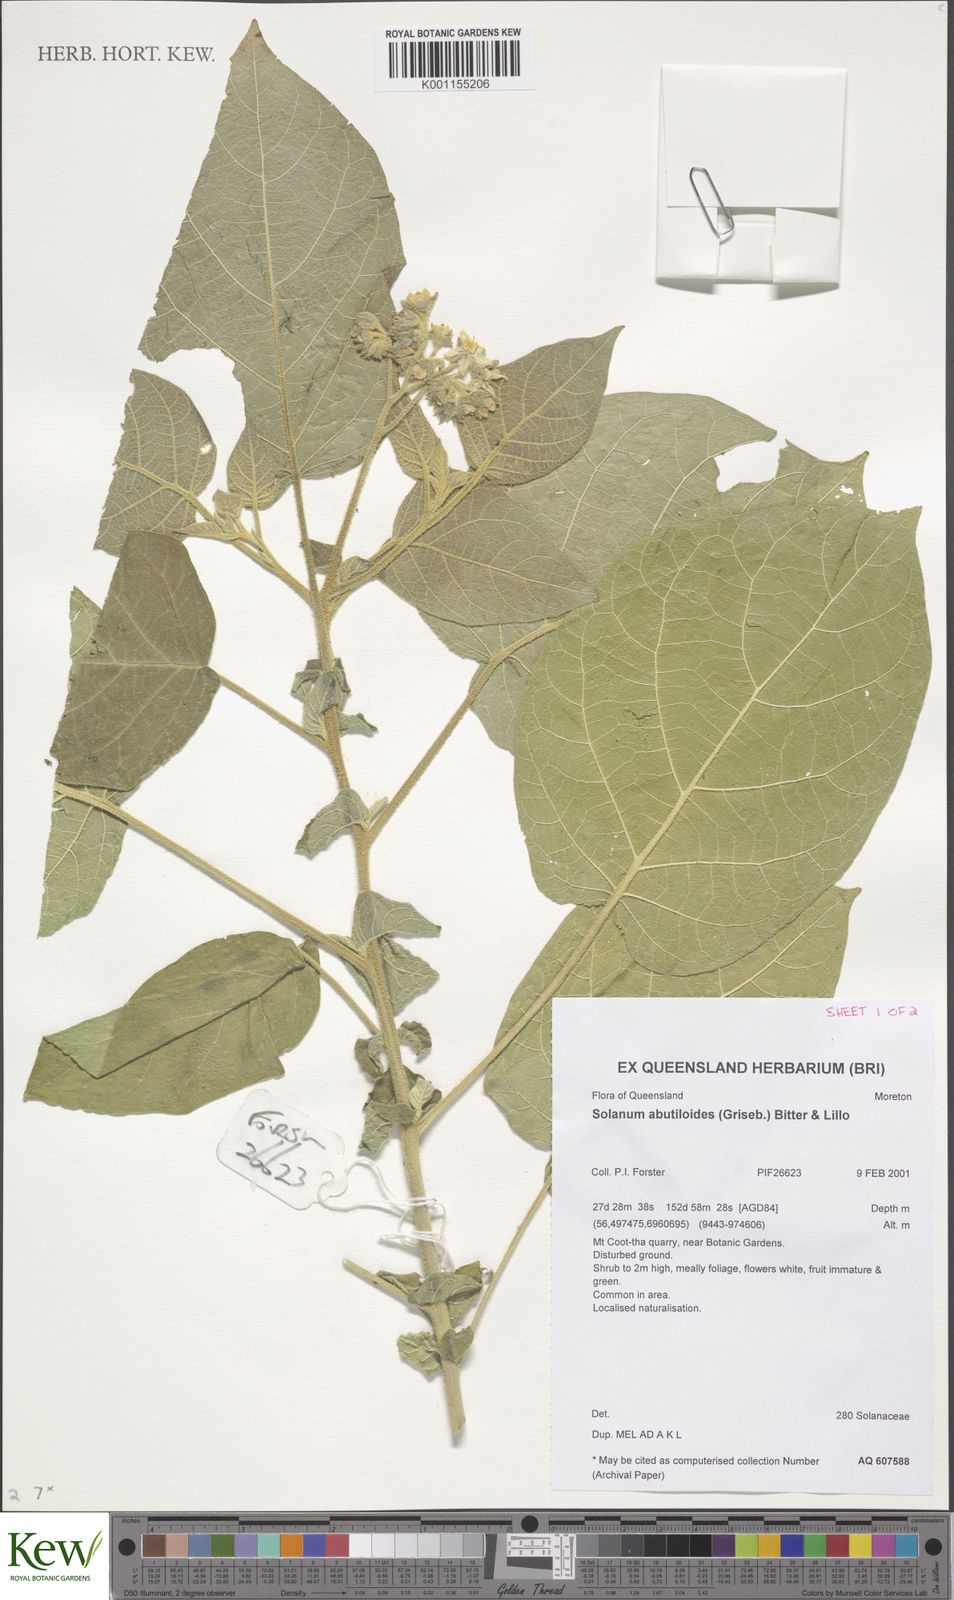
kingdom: Plantae
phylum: Tracheophyta
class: Magnoliopsida
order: Solanales
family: Solanaceae
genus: Solanum
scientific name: Solanum abutiloides
